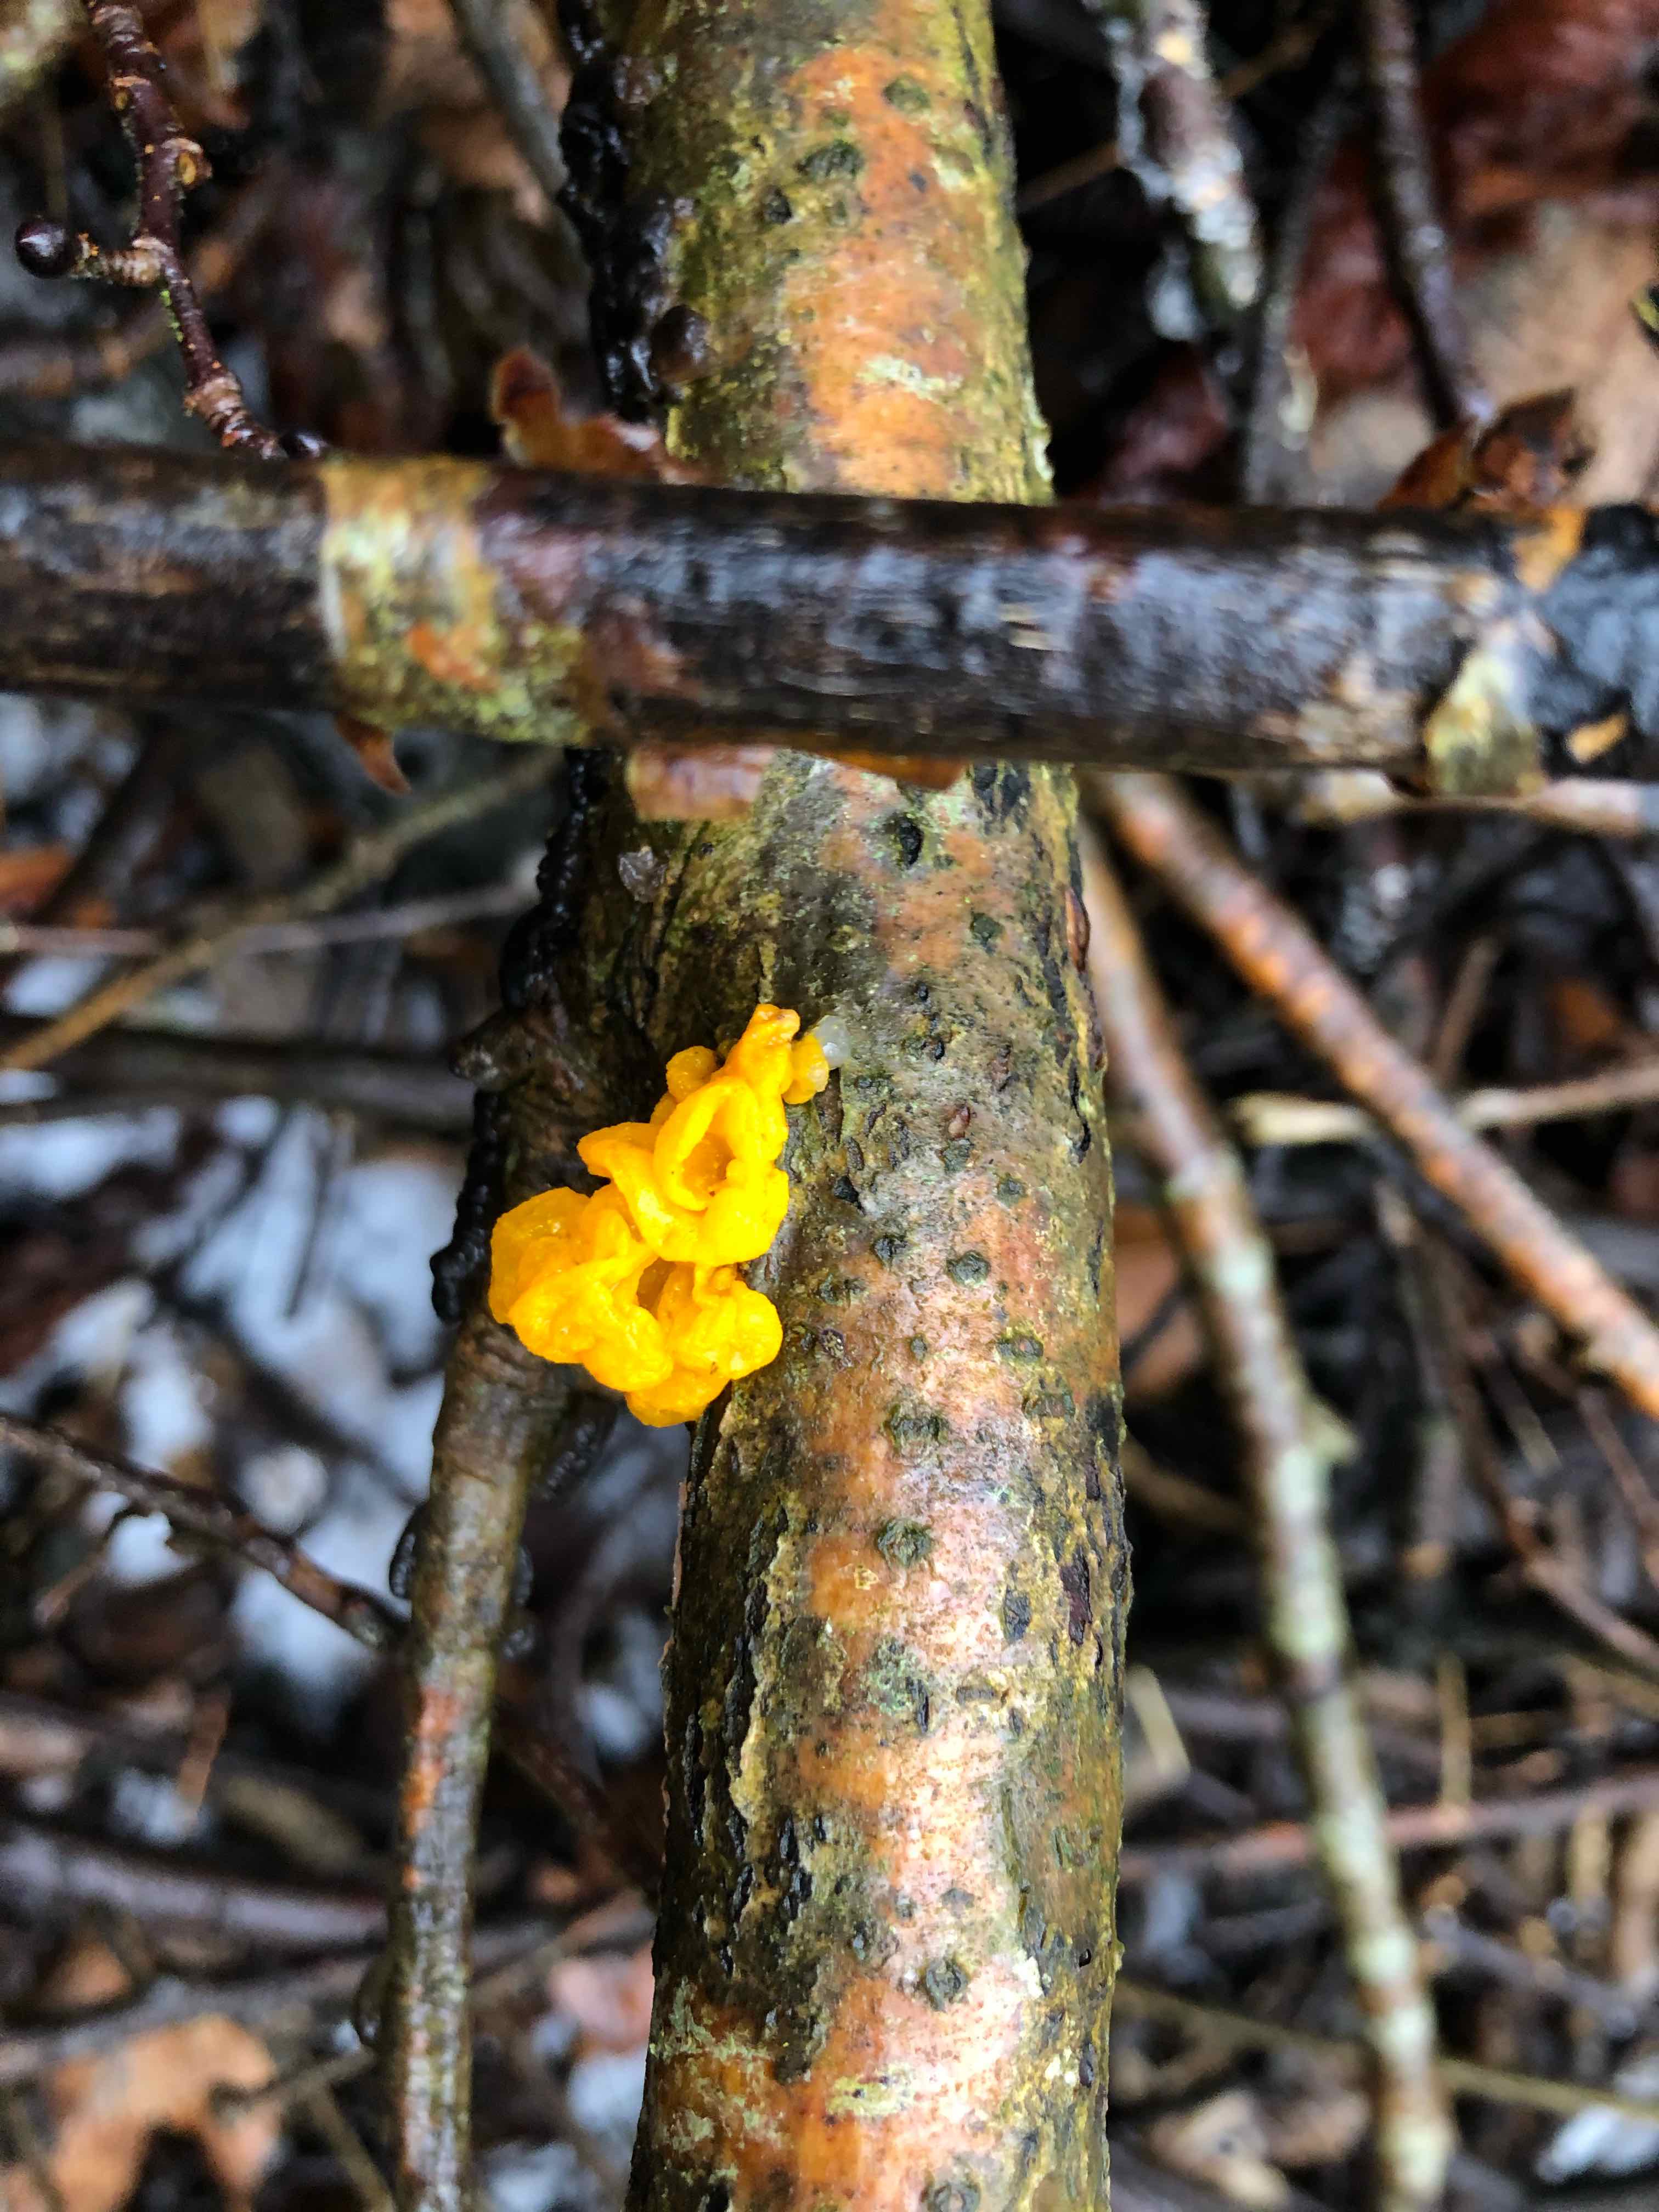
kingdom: Fungi
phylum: Basidiomycota
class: Tremellomycetes
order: Tremellales
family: Tremellaceae
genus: Tremella
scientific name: Tremella mesenterica
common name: gul bævresvamp
